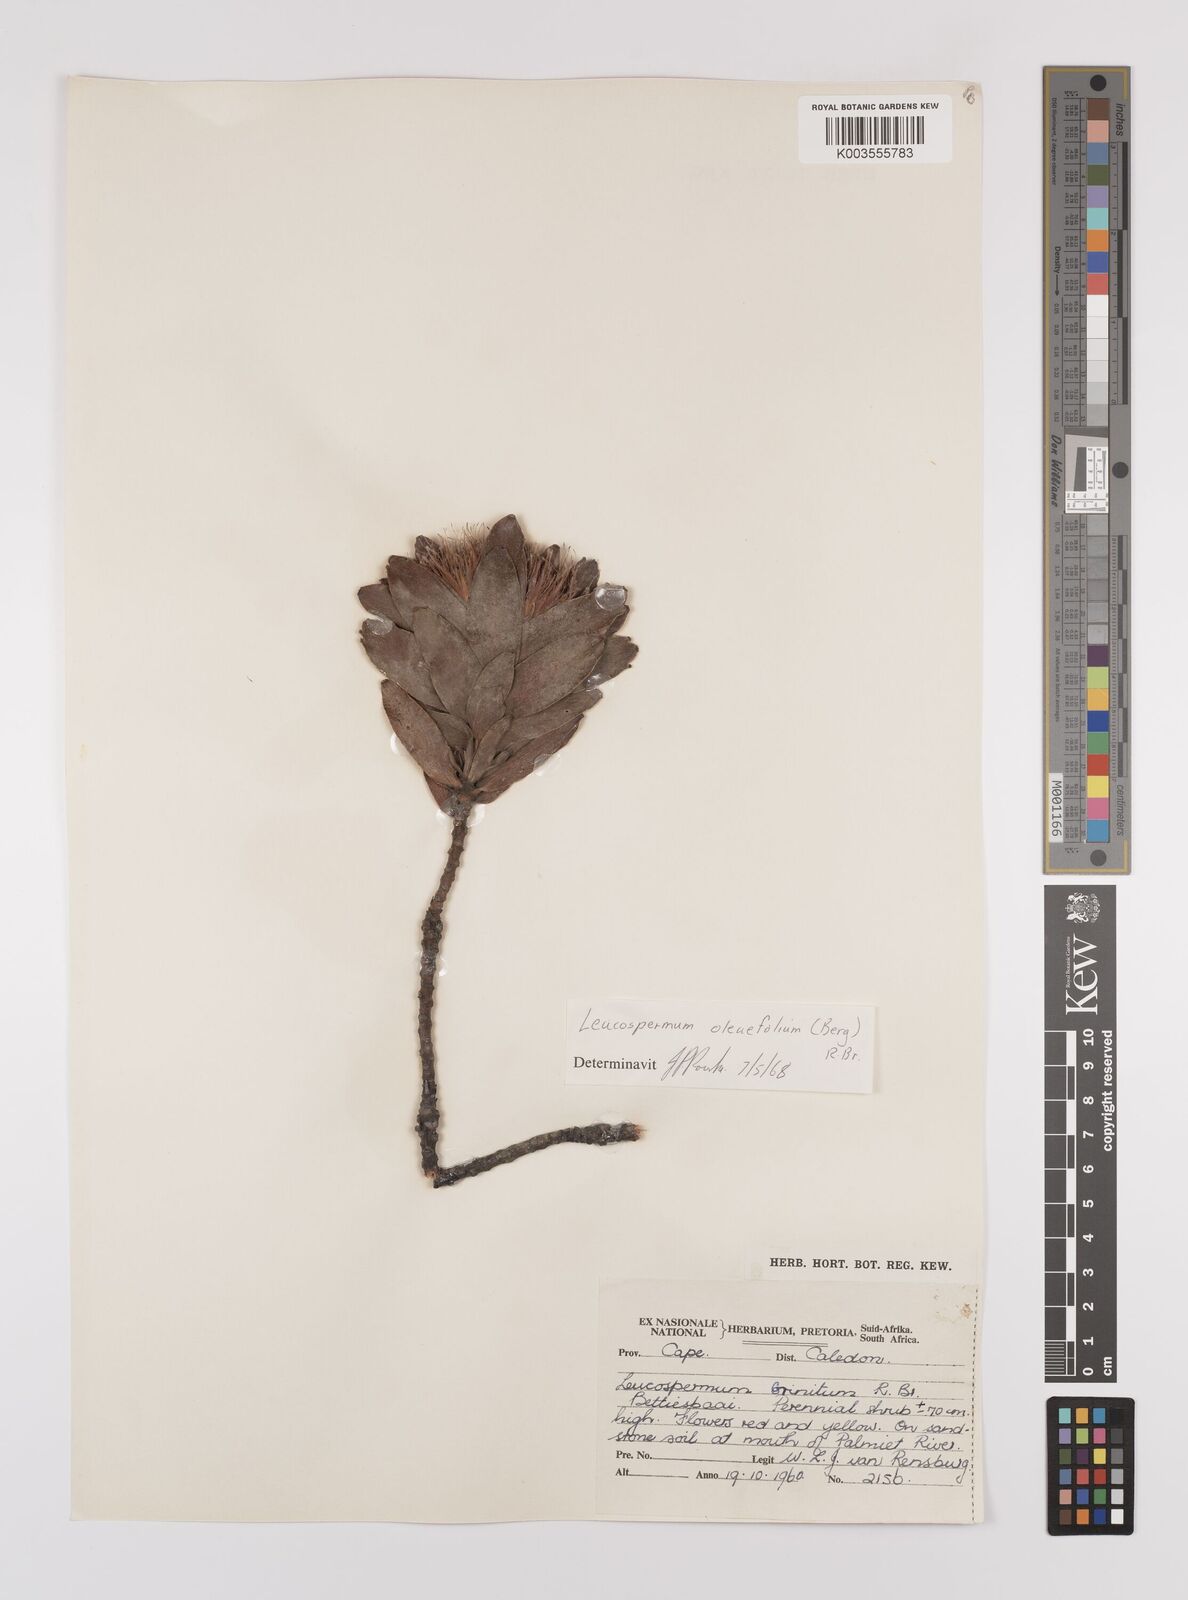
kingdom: Plantae
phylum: Tracheophyta
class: Magnoliopsida
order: Proteales
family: Proteaceae
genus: Leucospermum
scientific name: Leucospermum oleifolium
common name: Matches
